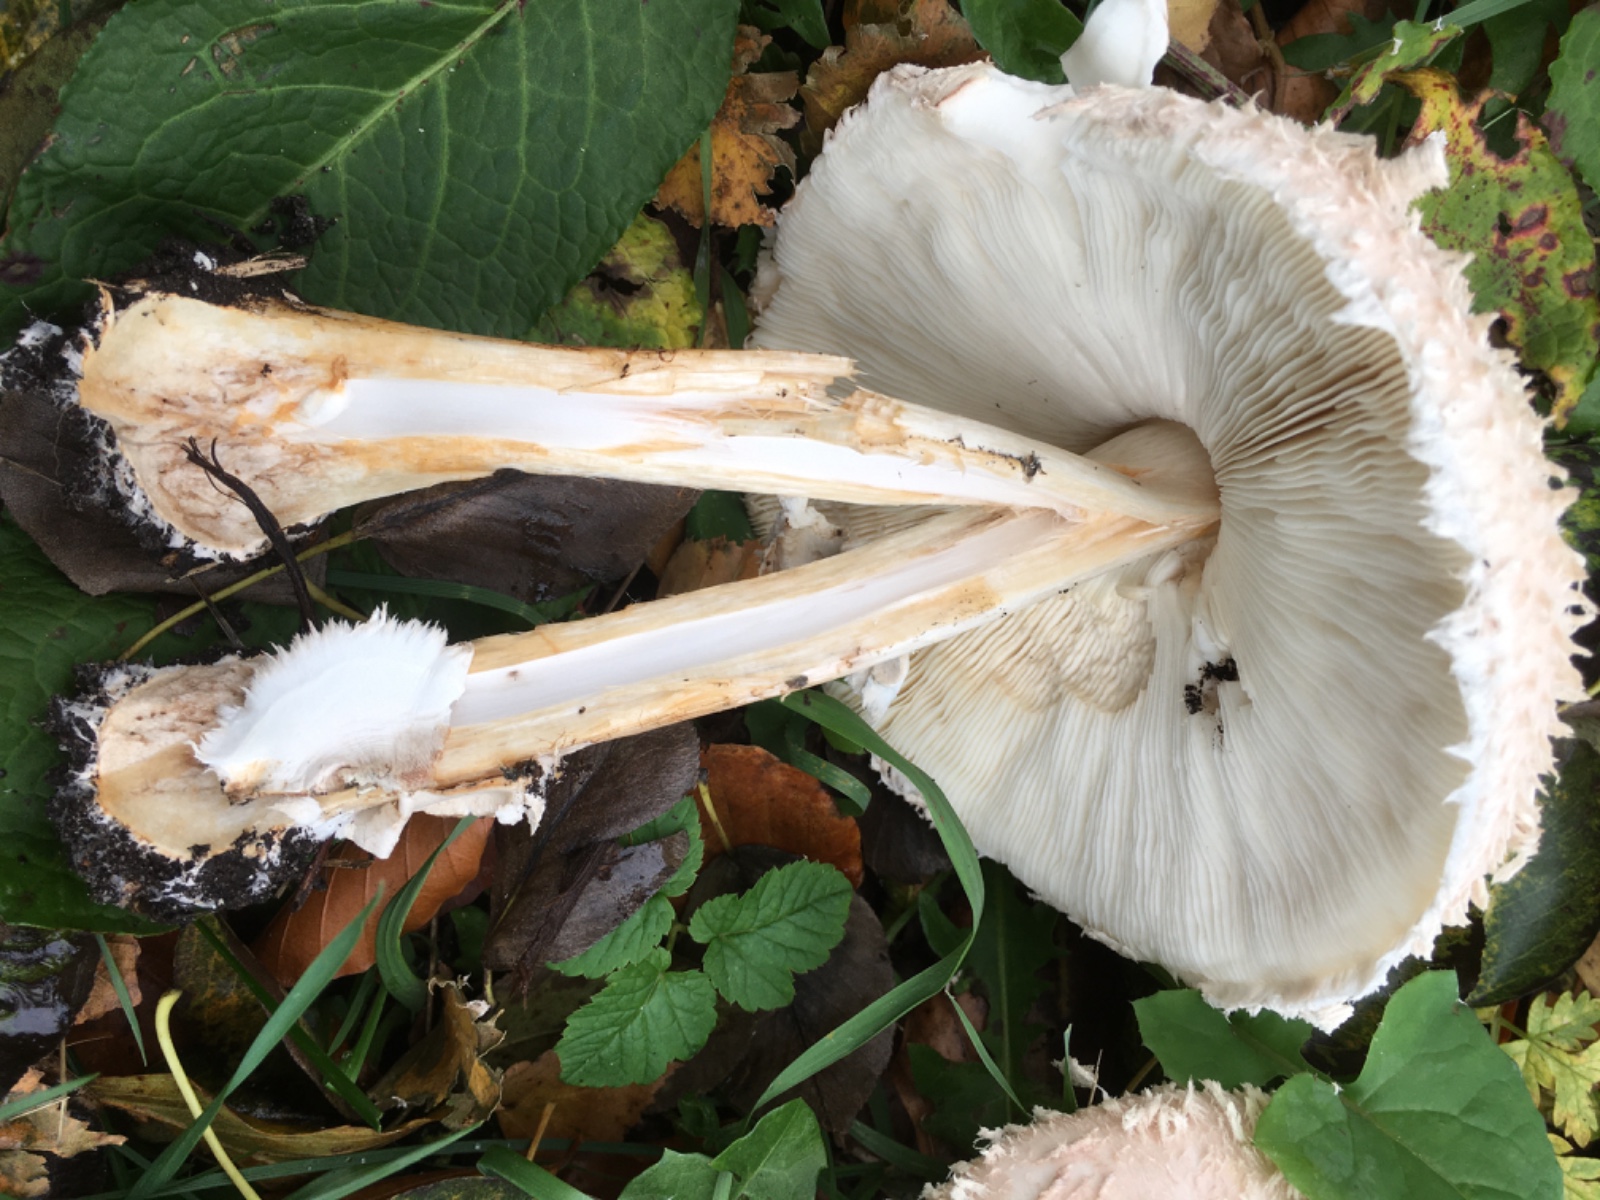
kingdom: Fungi
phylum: Basidiomycota
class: Agaricomycetes
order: Agaricales
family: Agaricaceae
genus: Chlorophyllum
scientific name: Chlorophyllum brunneum
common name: giftig rabarberhat
